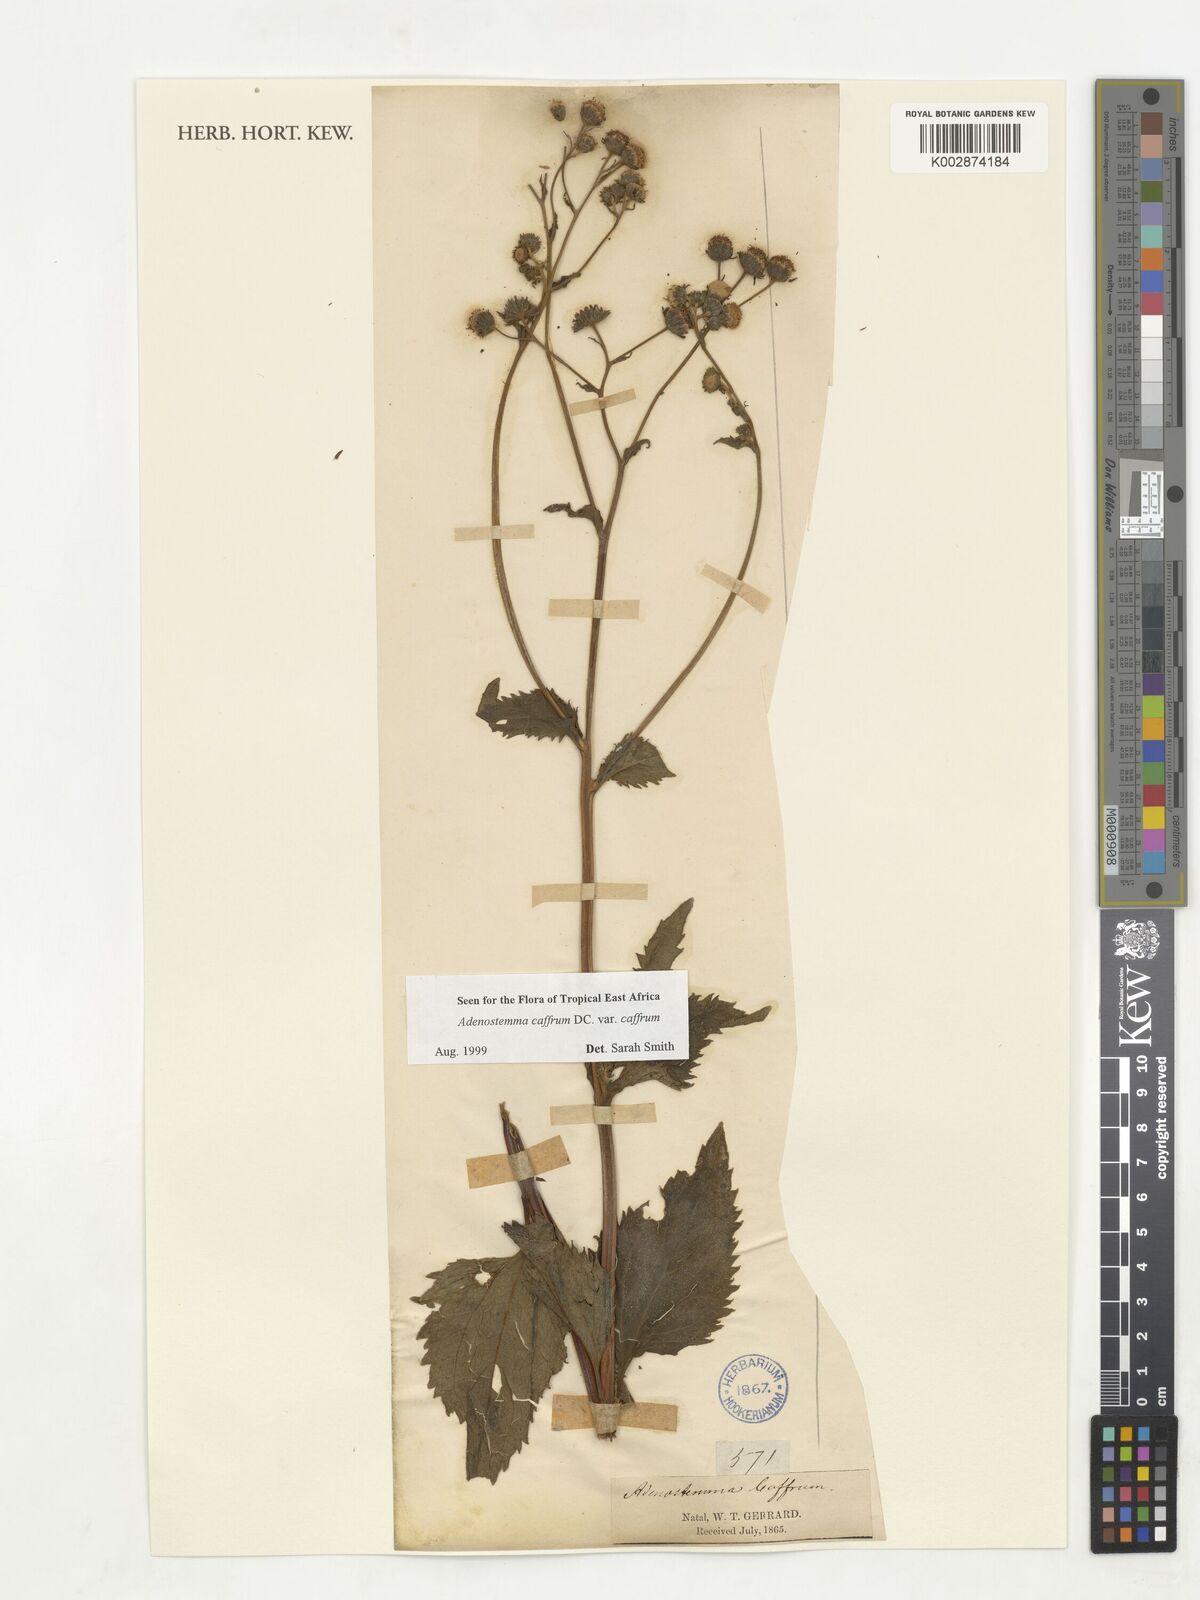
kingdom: Plantae
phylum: Tracheophyta
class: Magnoliopsida
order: Asterales
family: Asteraceae
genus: Adenostemma
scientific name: Adenostemma caffrum
